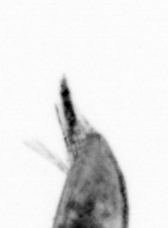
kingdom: Animalia
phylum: Arthropoda
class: Maxillopoda
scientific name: Maxillopoda
